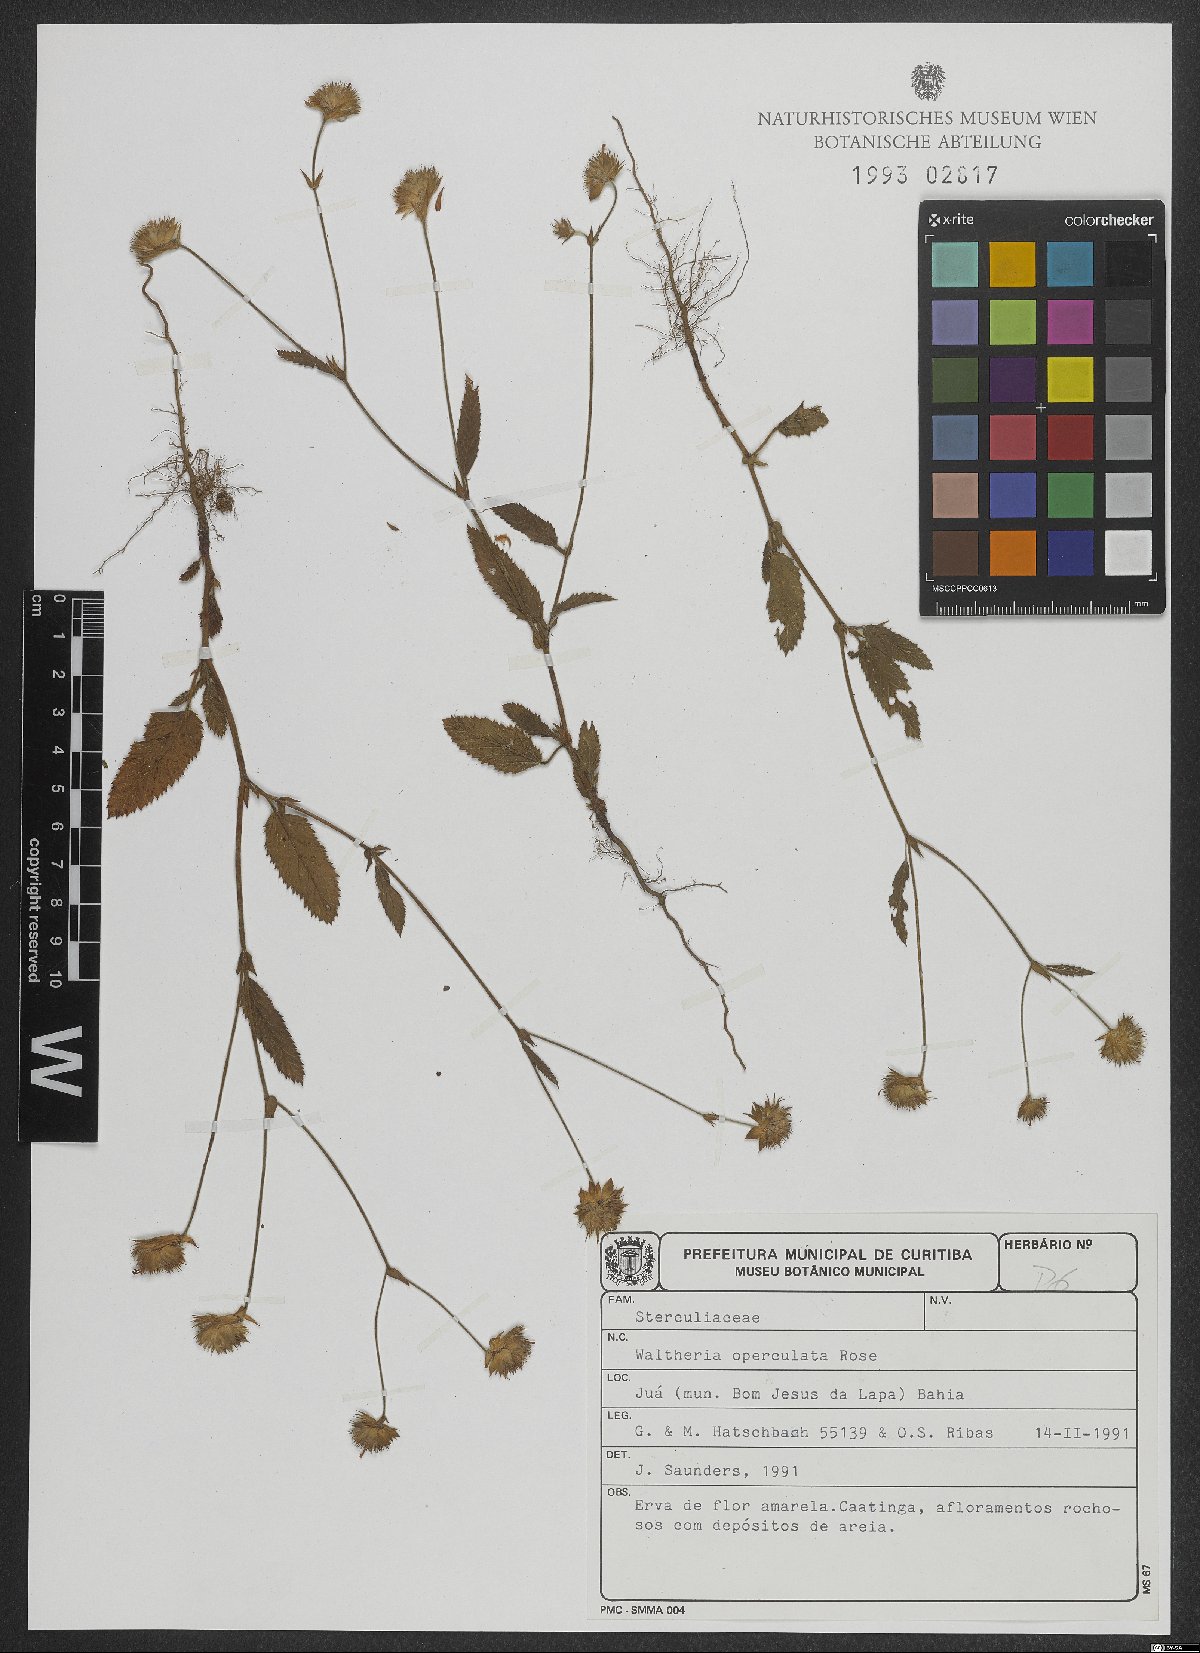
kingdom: Plantae
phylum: Tracheophyta
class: Magnoliopsida
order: Malvales
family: Malvaceae
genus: Waltheria
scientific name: Waltheria operculata
